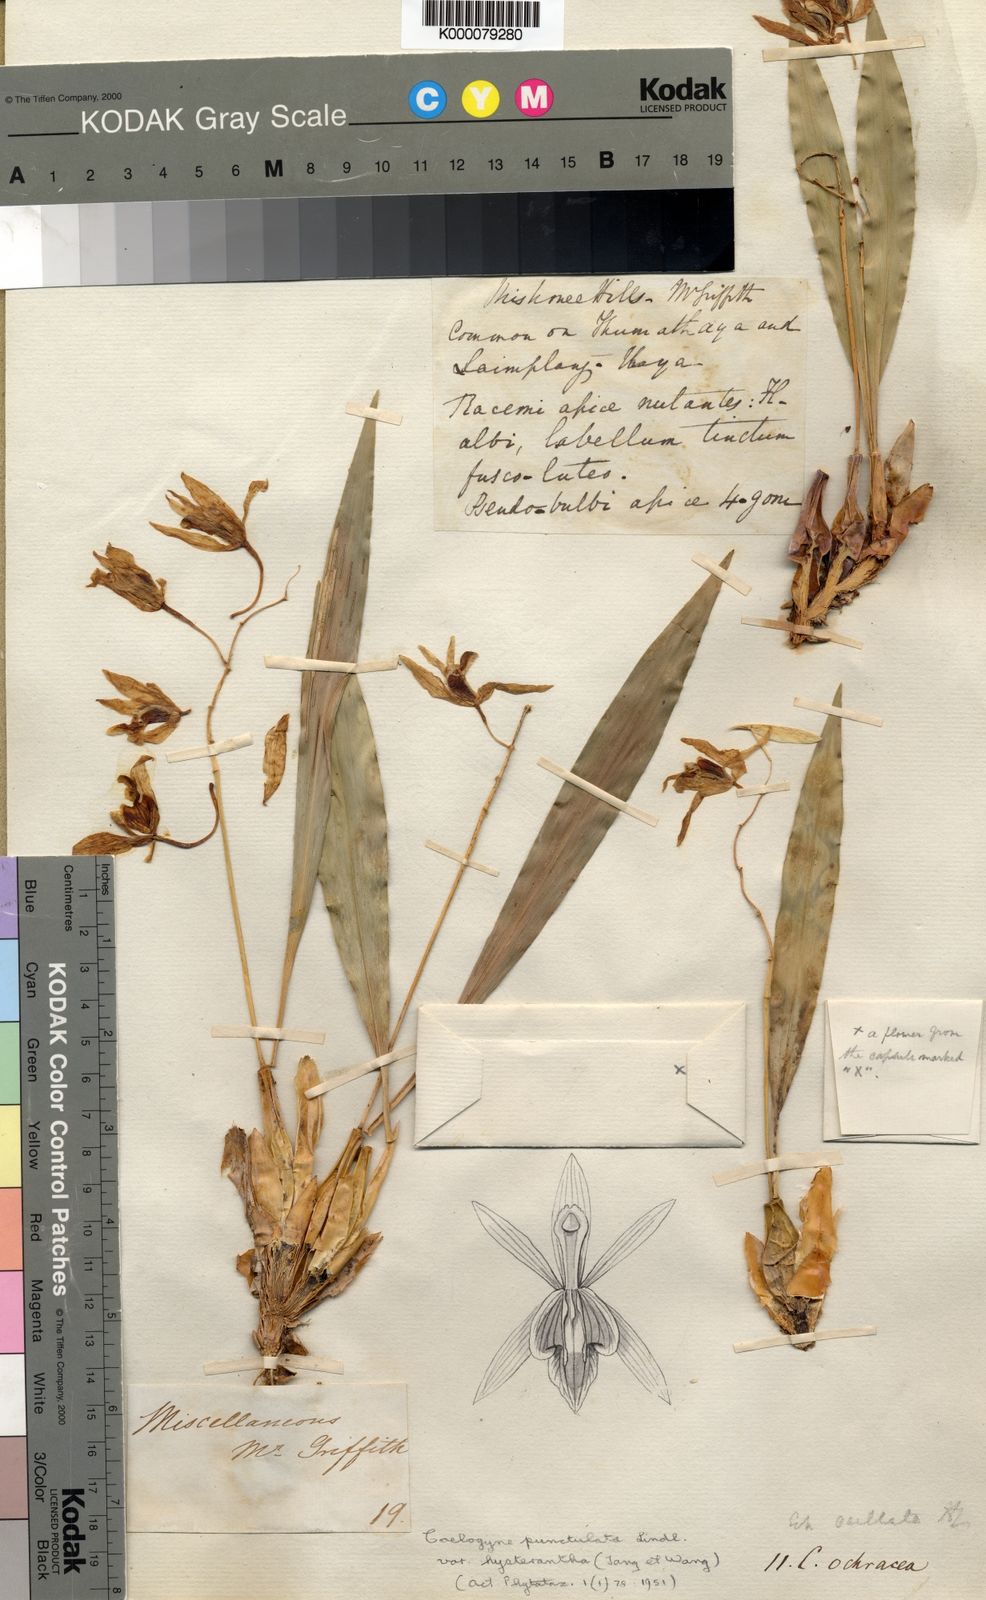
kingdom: Plantae
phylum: Tracheophyta
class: Liliopsida
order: Asparagales
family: Orchidaceae
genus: Coelogyne
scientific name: Coelogyne nitida
